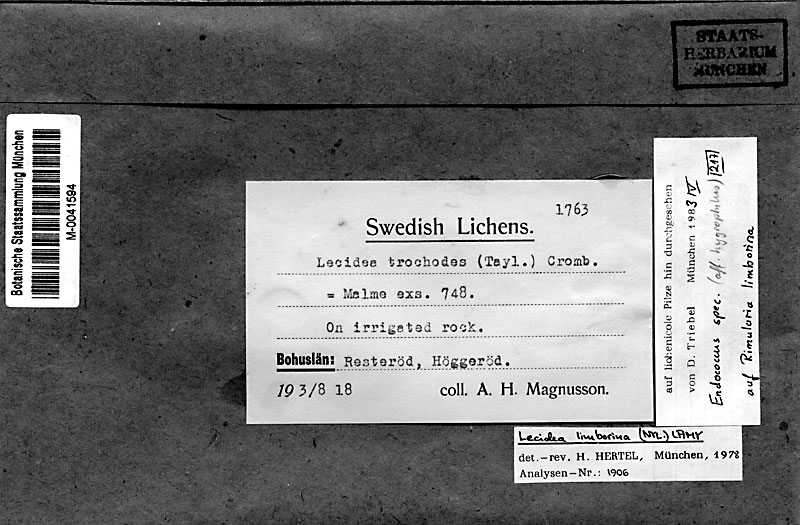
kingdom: Fungi
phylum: Ascomycota
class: Lecanoromycetes
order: Baeomycetales
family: Trapeliaceae
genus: Rimularia
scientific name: Rimularia limborina
